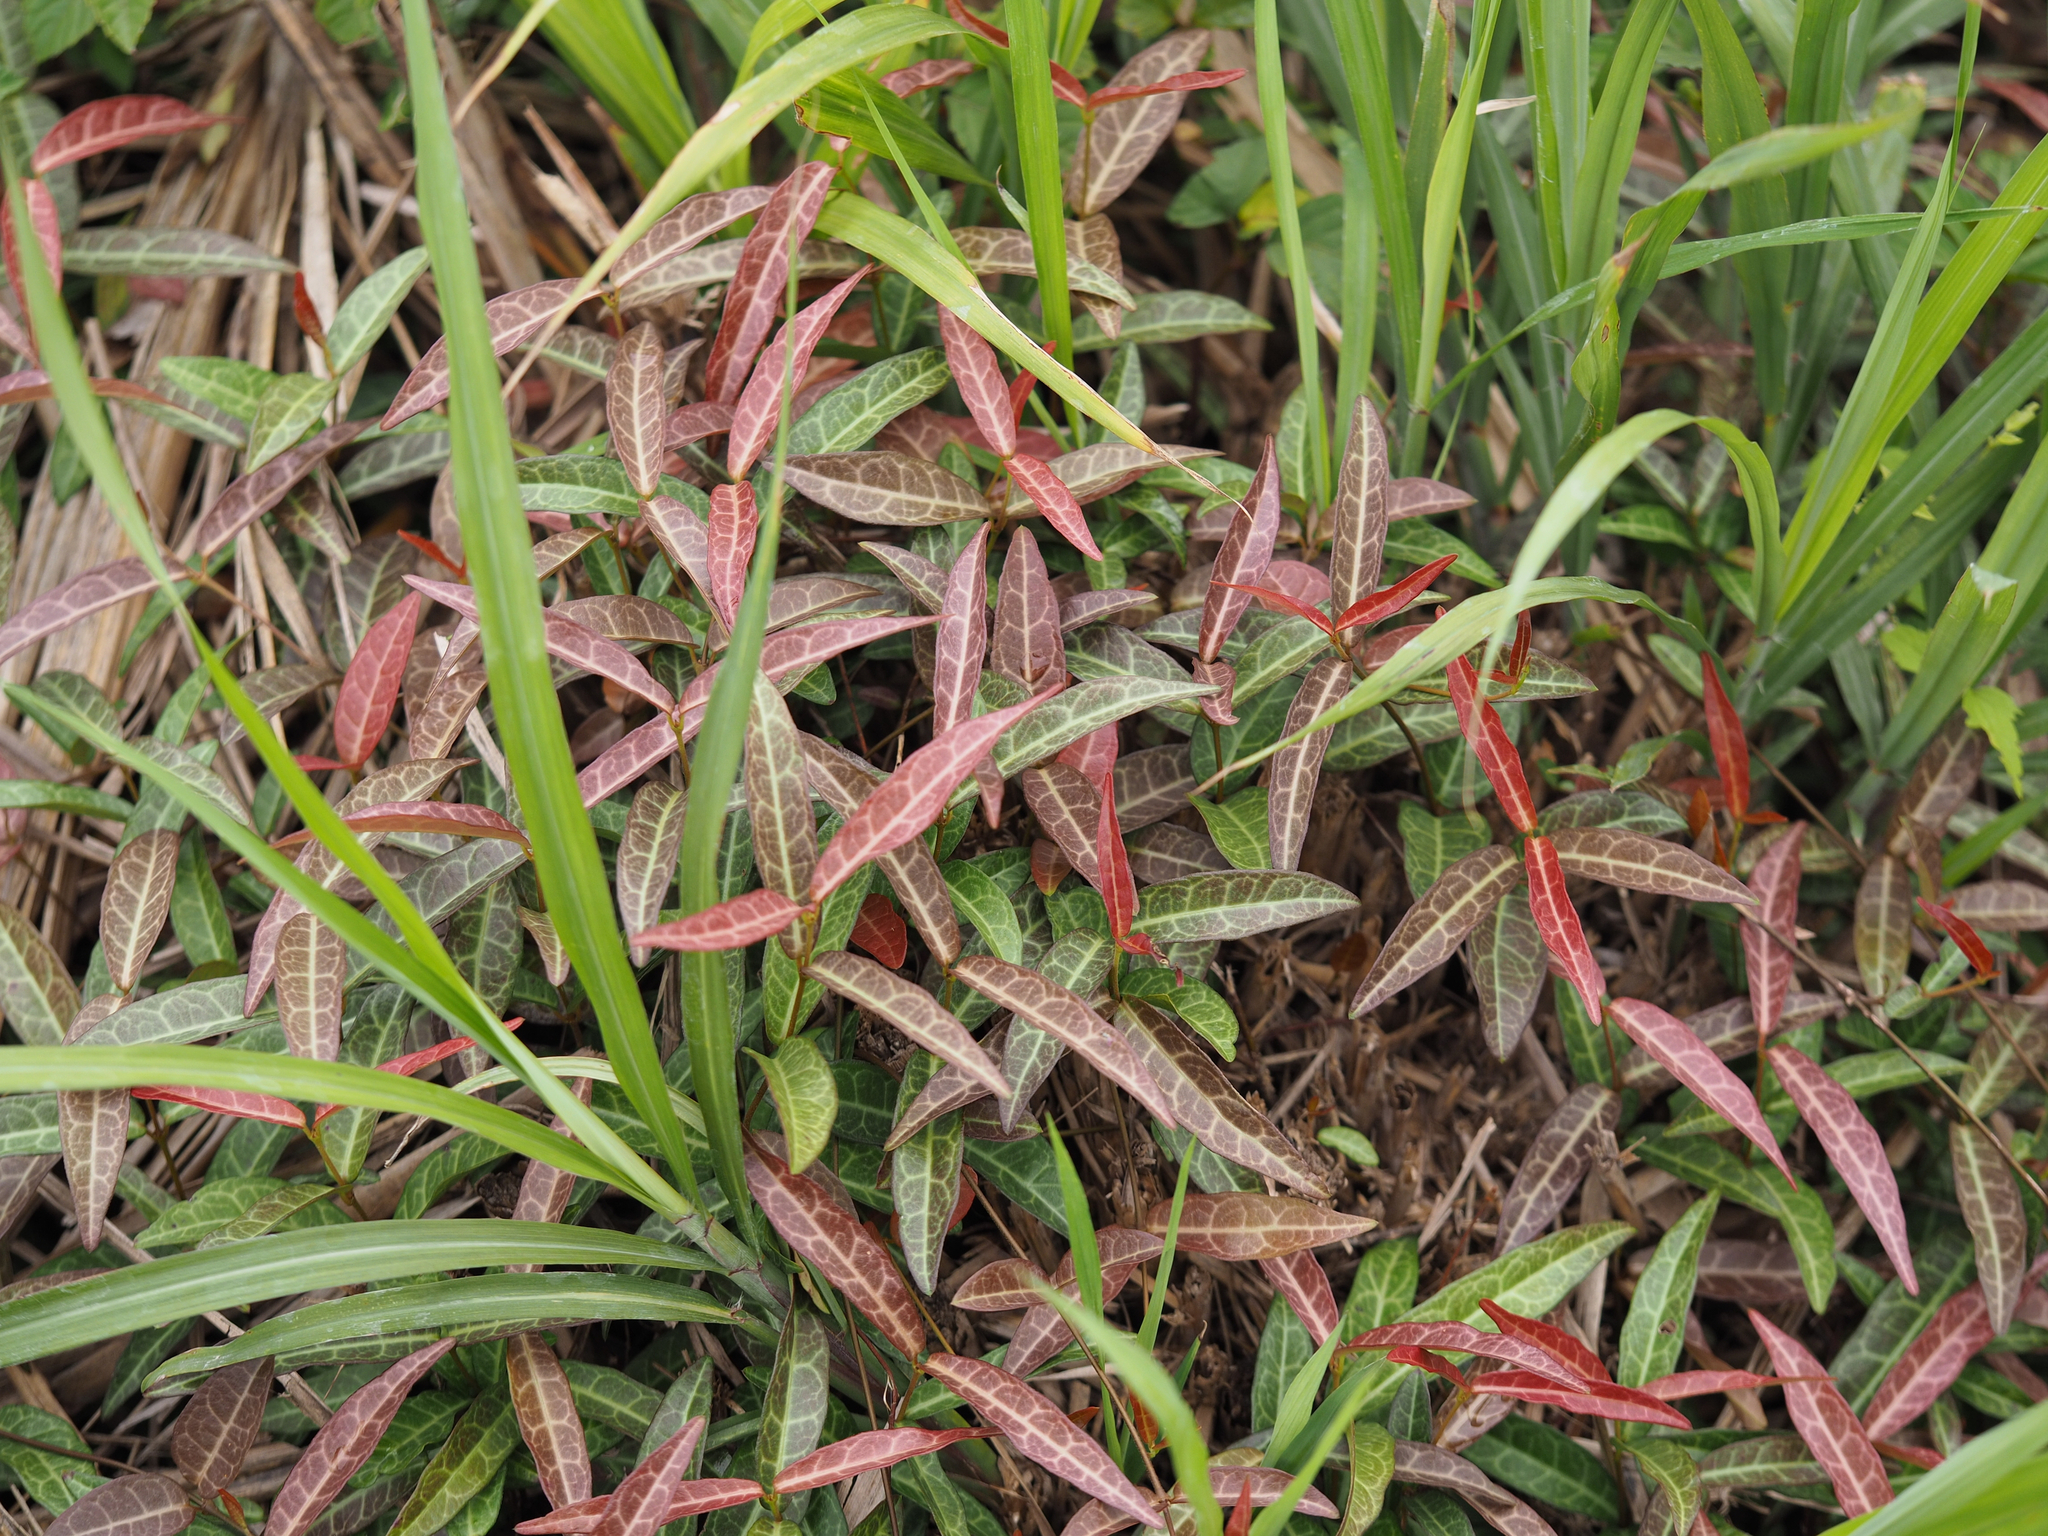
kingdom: Plantae
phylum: Tracheophyta
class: Magnoliopsida
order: Gentianales
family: Apocynaceae
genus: Trachelospermum
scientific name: Trachelospermum jasminoides
